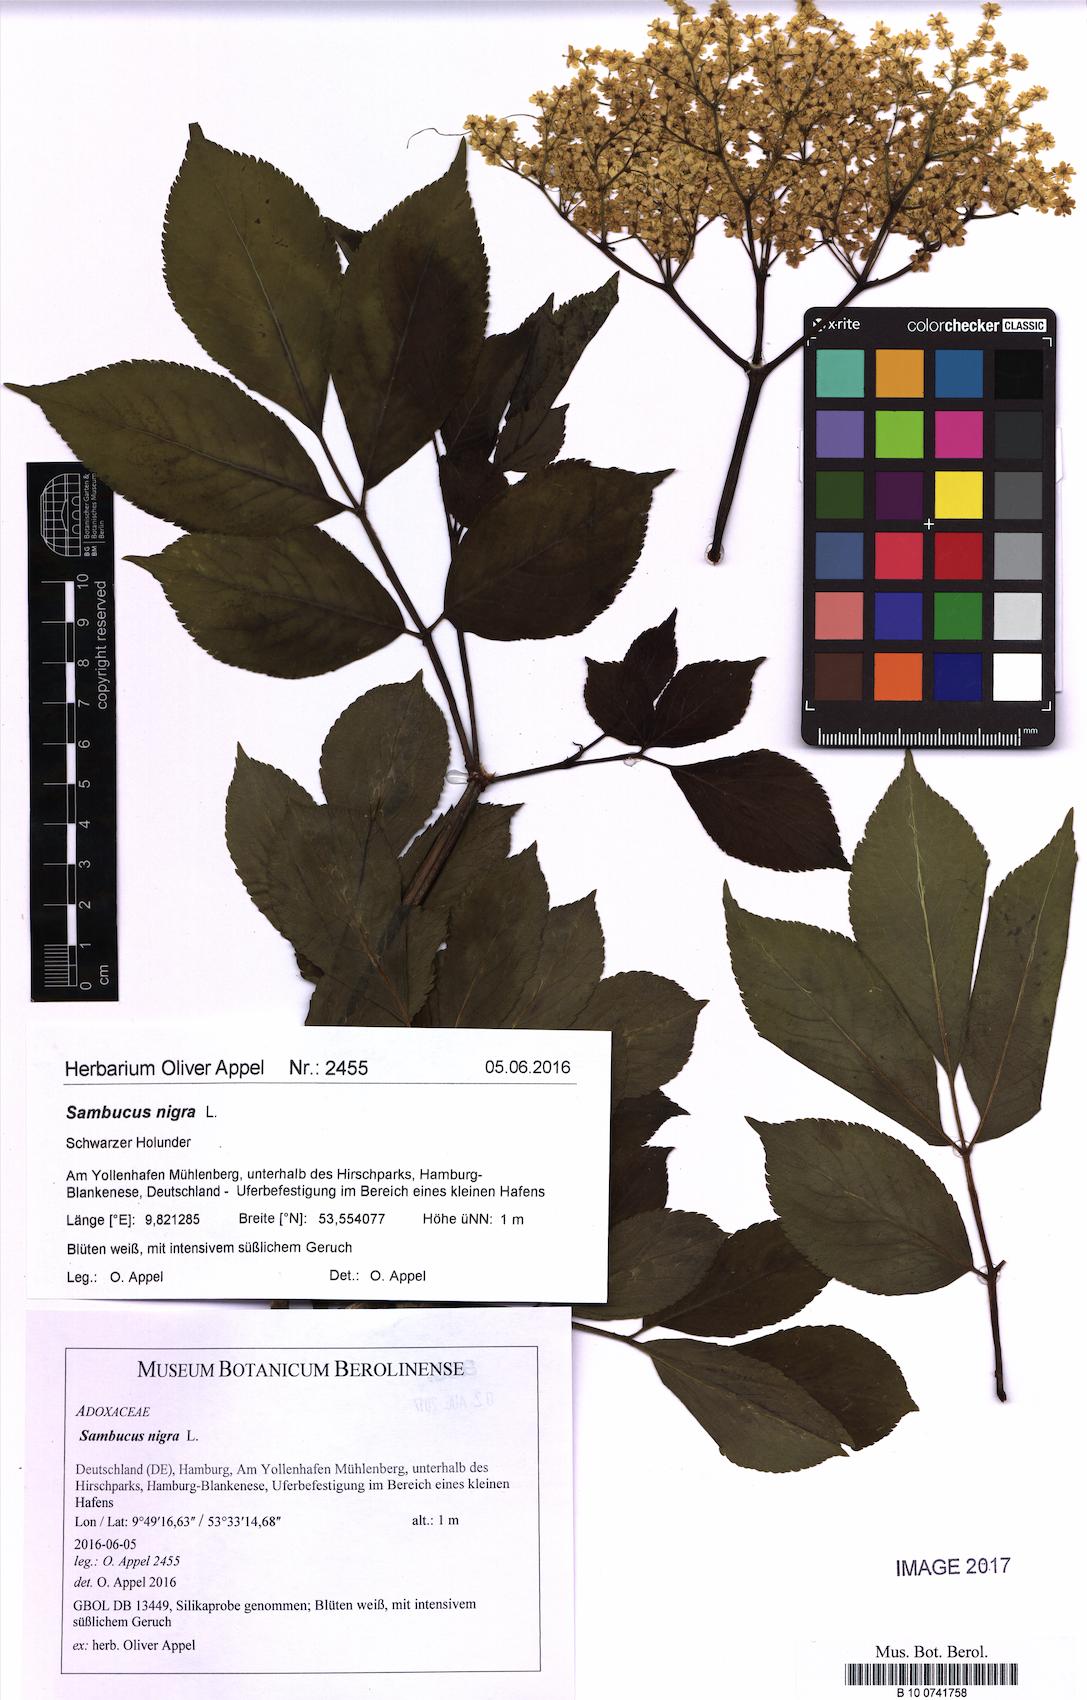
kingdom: Plantae
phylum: Tracheophyta
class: Magnoliopsida
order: Dipsacales
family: Viburnaceae
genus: Sambucus
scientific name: Sambucus nigra
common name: Elder
